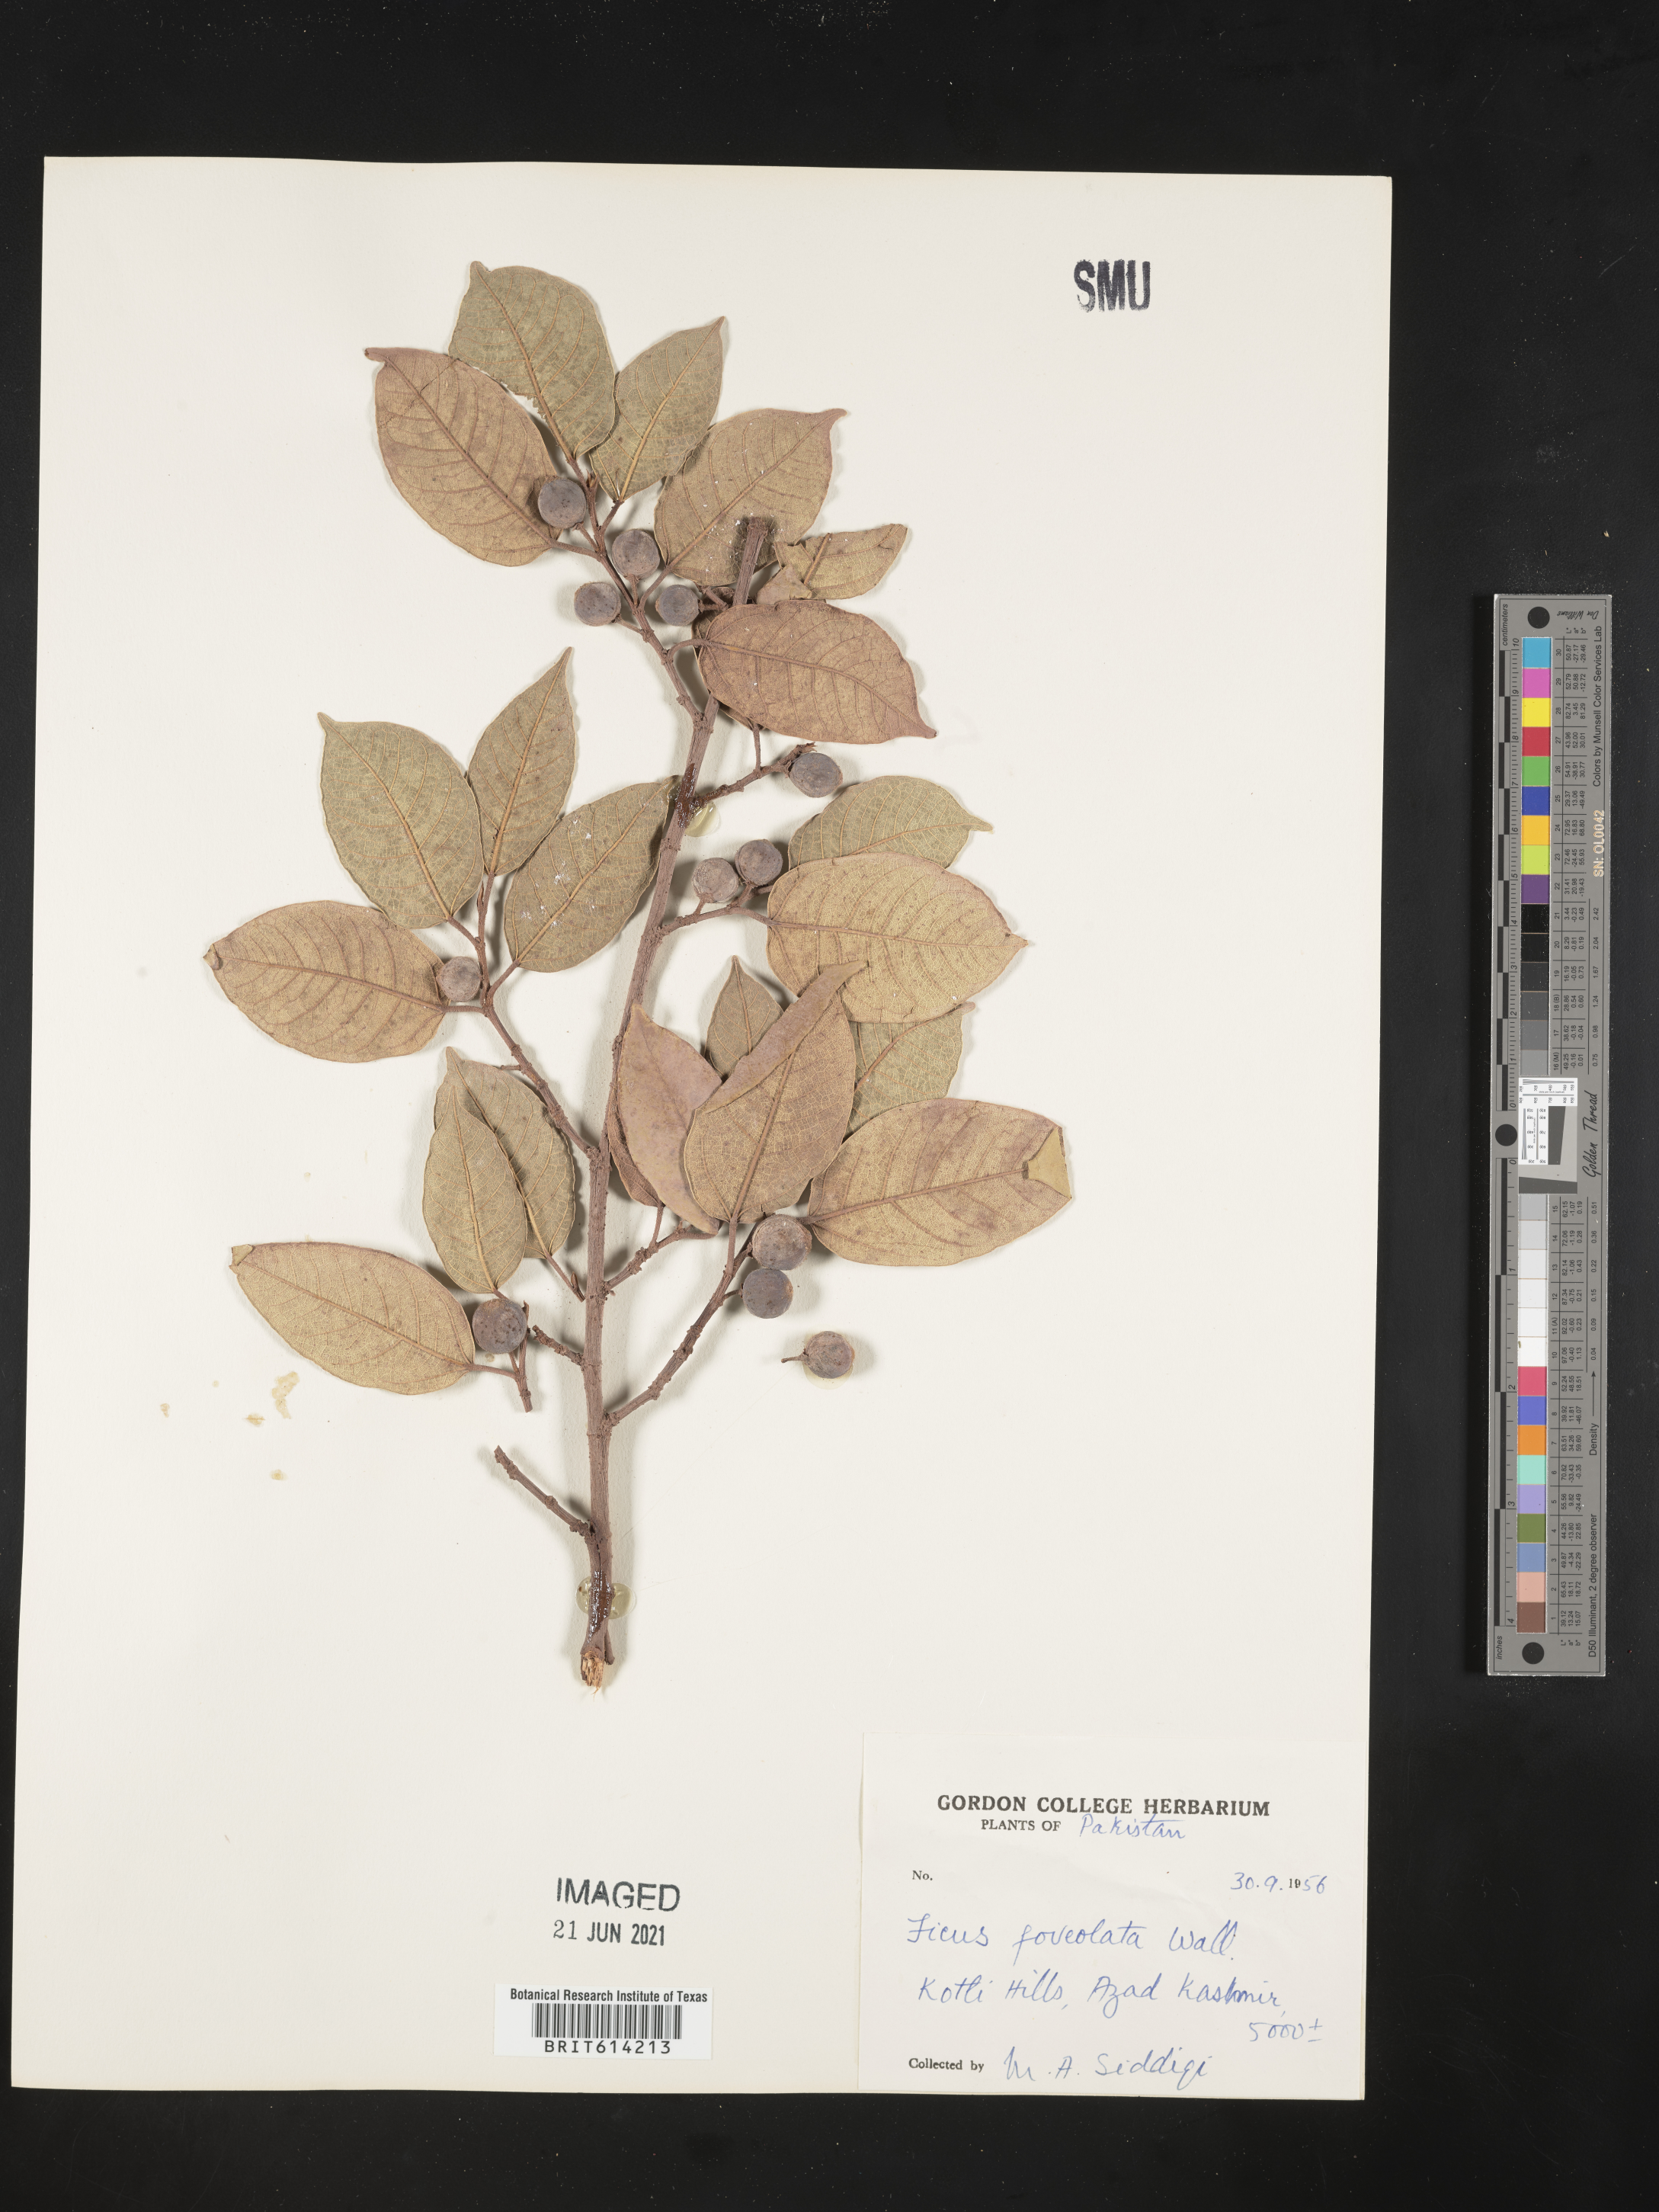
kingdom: Plantae
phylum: Tracheophyta
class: Magnoliopsida
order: Rosales
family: Moraceae
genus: Ficus
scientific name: Ficus citrifolia
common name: Strangler fig
